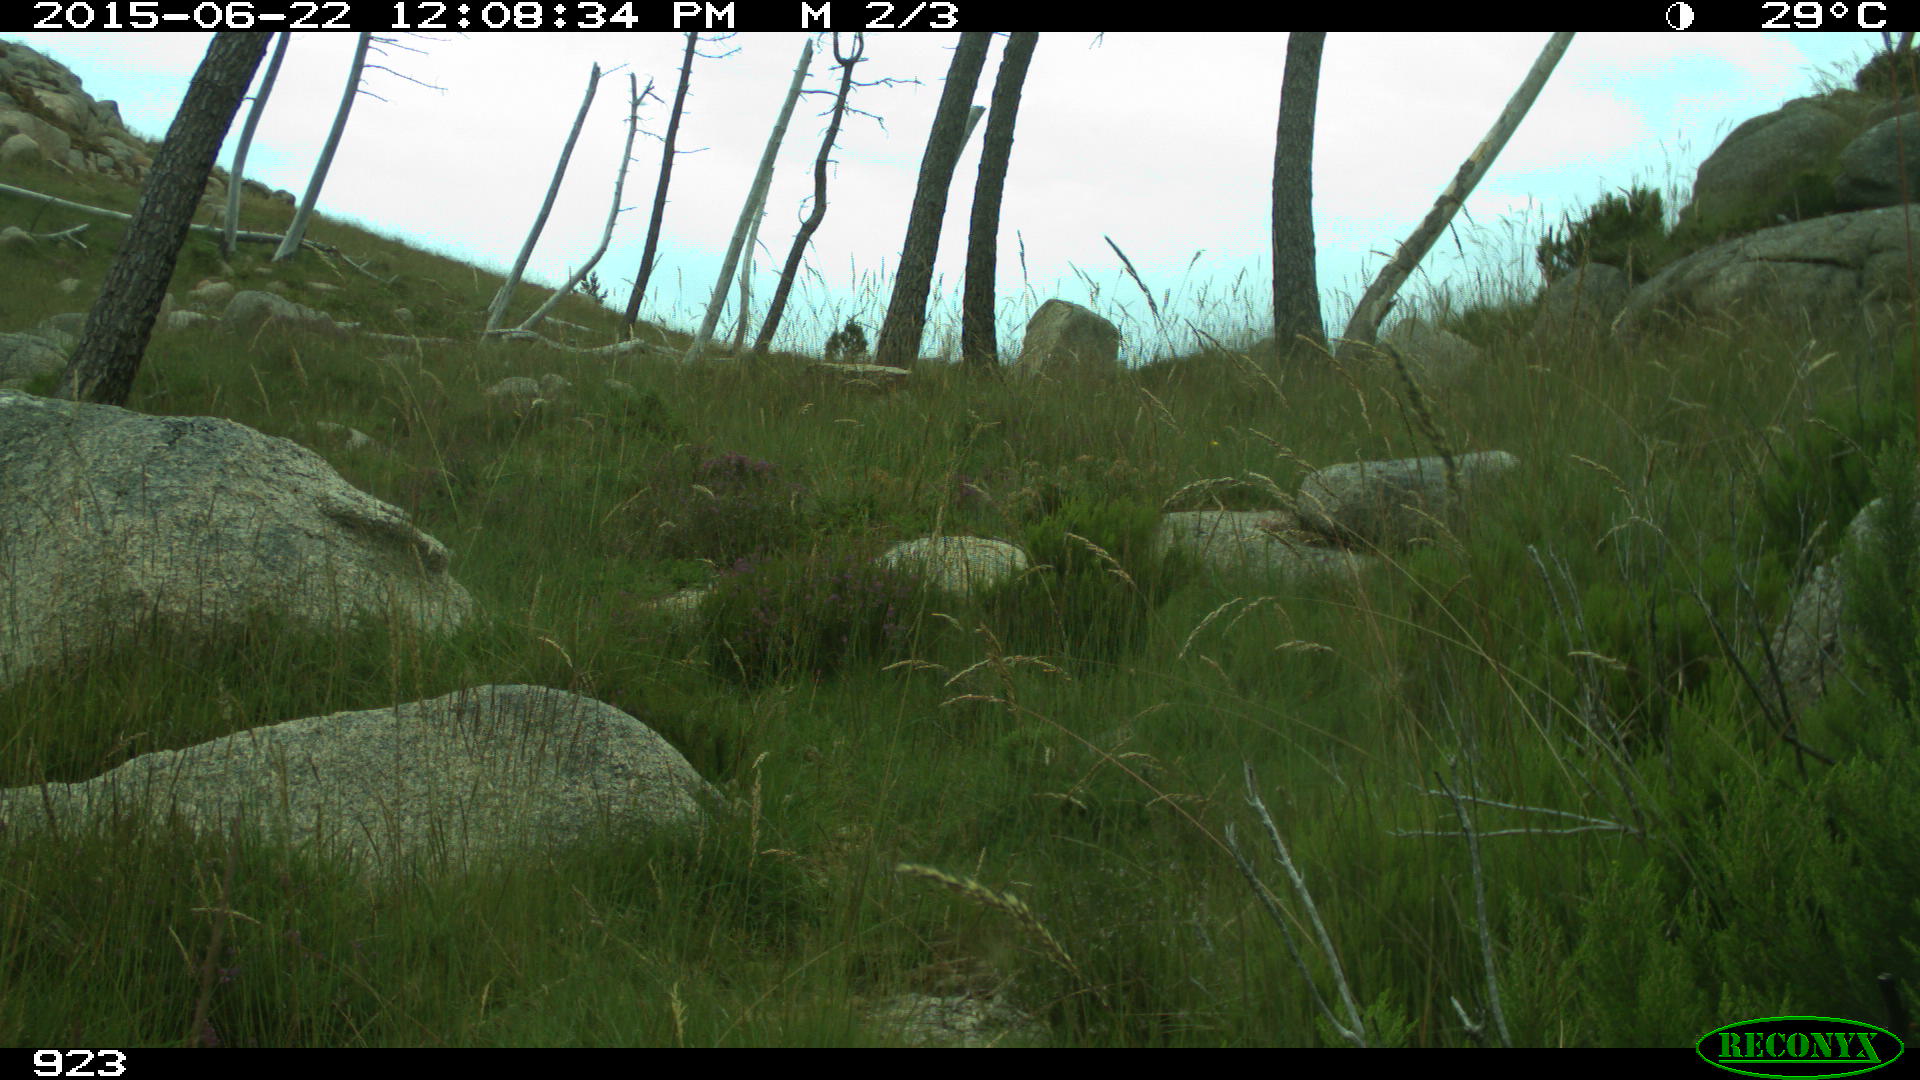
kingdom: Animalia
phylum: Chordata
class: Mammalia
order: Artiodactyla
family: Cervidae
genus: Capreolus
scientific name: Capreolus capreolus
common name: Western roe deer
